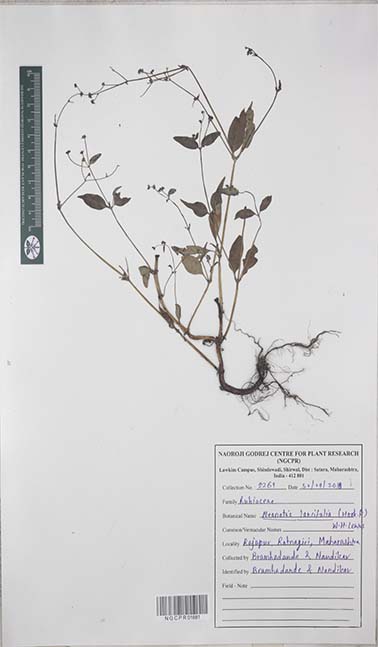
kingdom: Plantae
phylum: Tracheophyta
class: Magnoliopsida
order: Gentianales
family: Rubiaceae
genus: Neanotis
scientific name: Neanotis lancifolia
